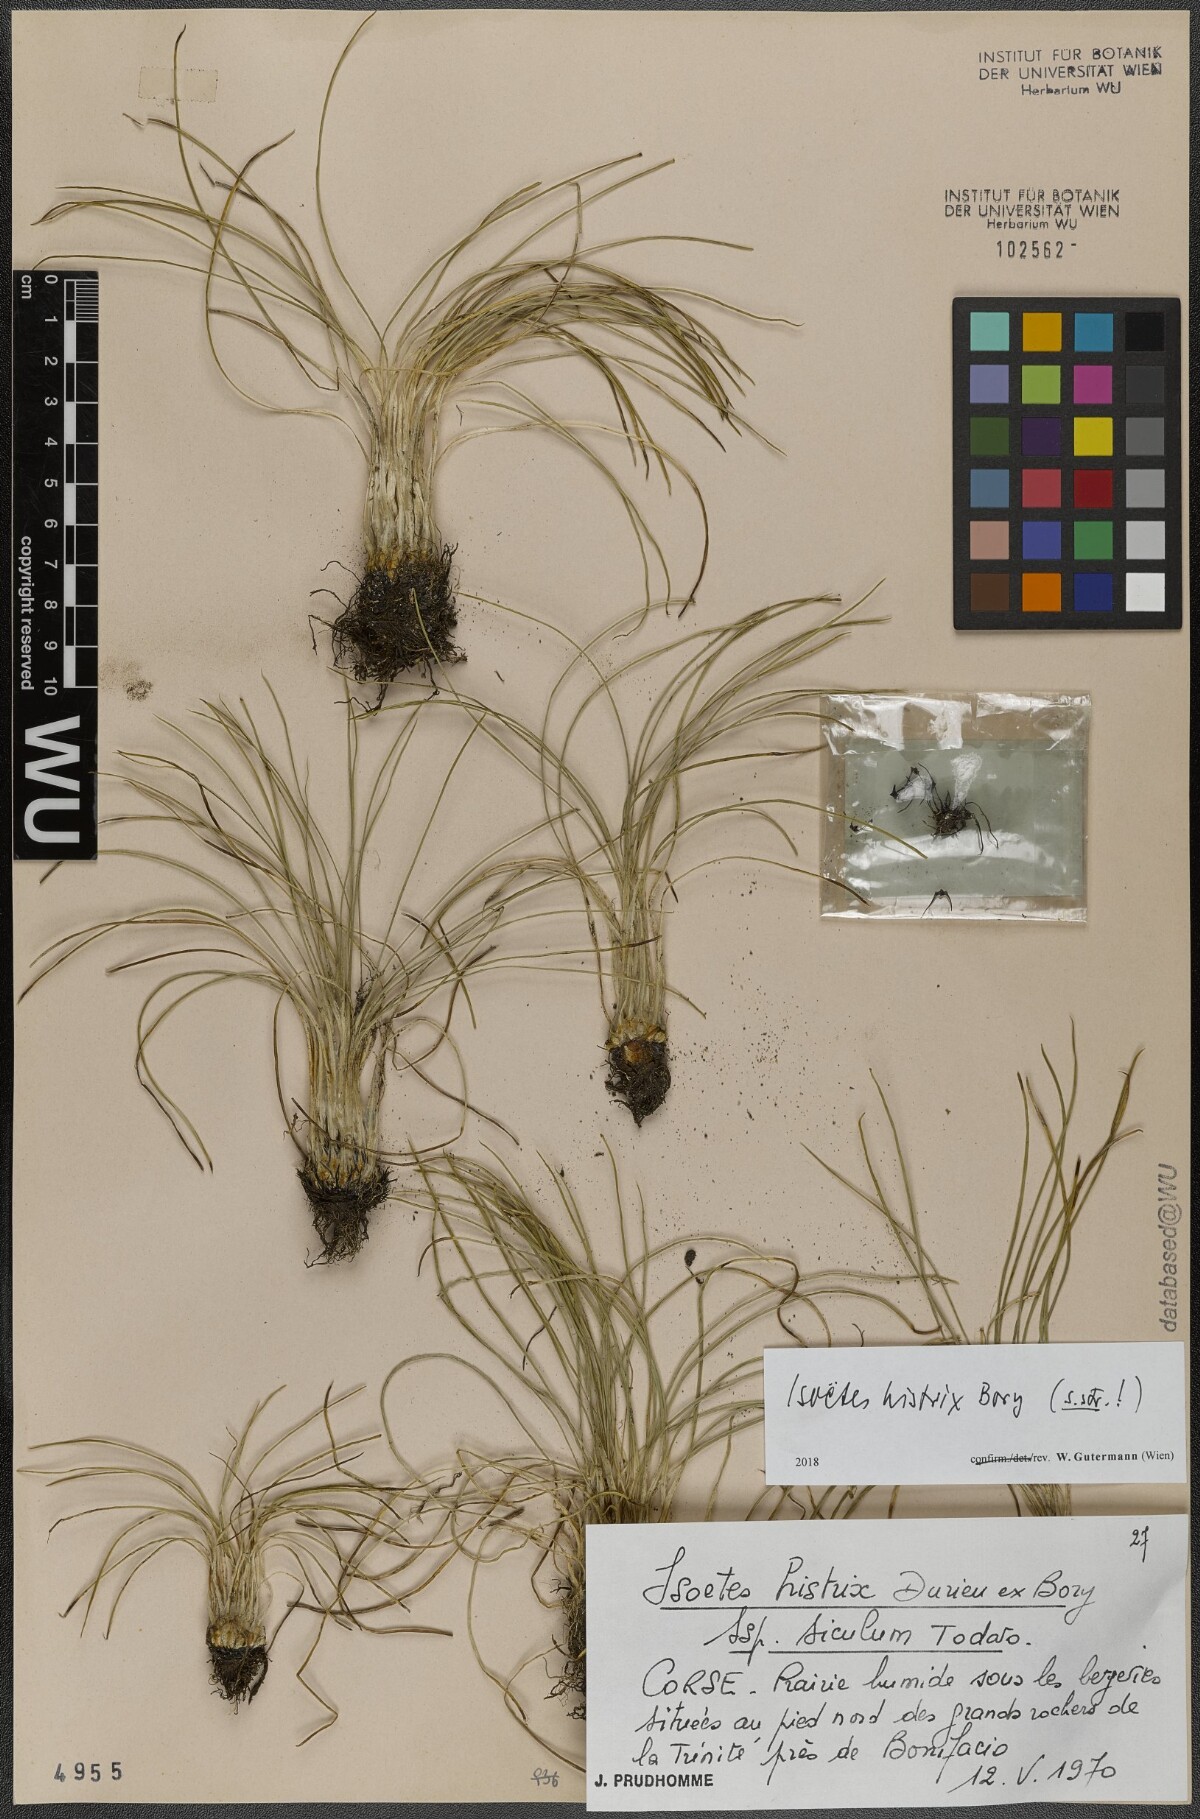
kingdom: Plantae
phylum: Tracheophyta
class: Lycopodiopsida
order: Isoetales
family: Isoetaceae
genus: Isoetes
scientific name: Isoetes histrix
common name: Land quillwort
